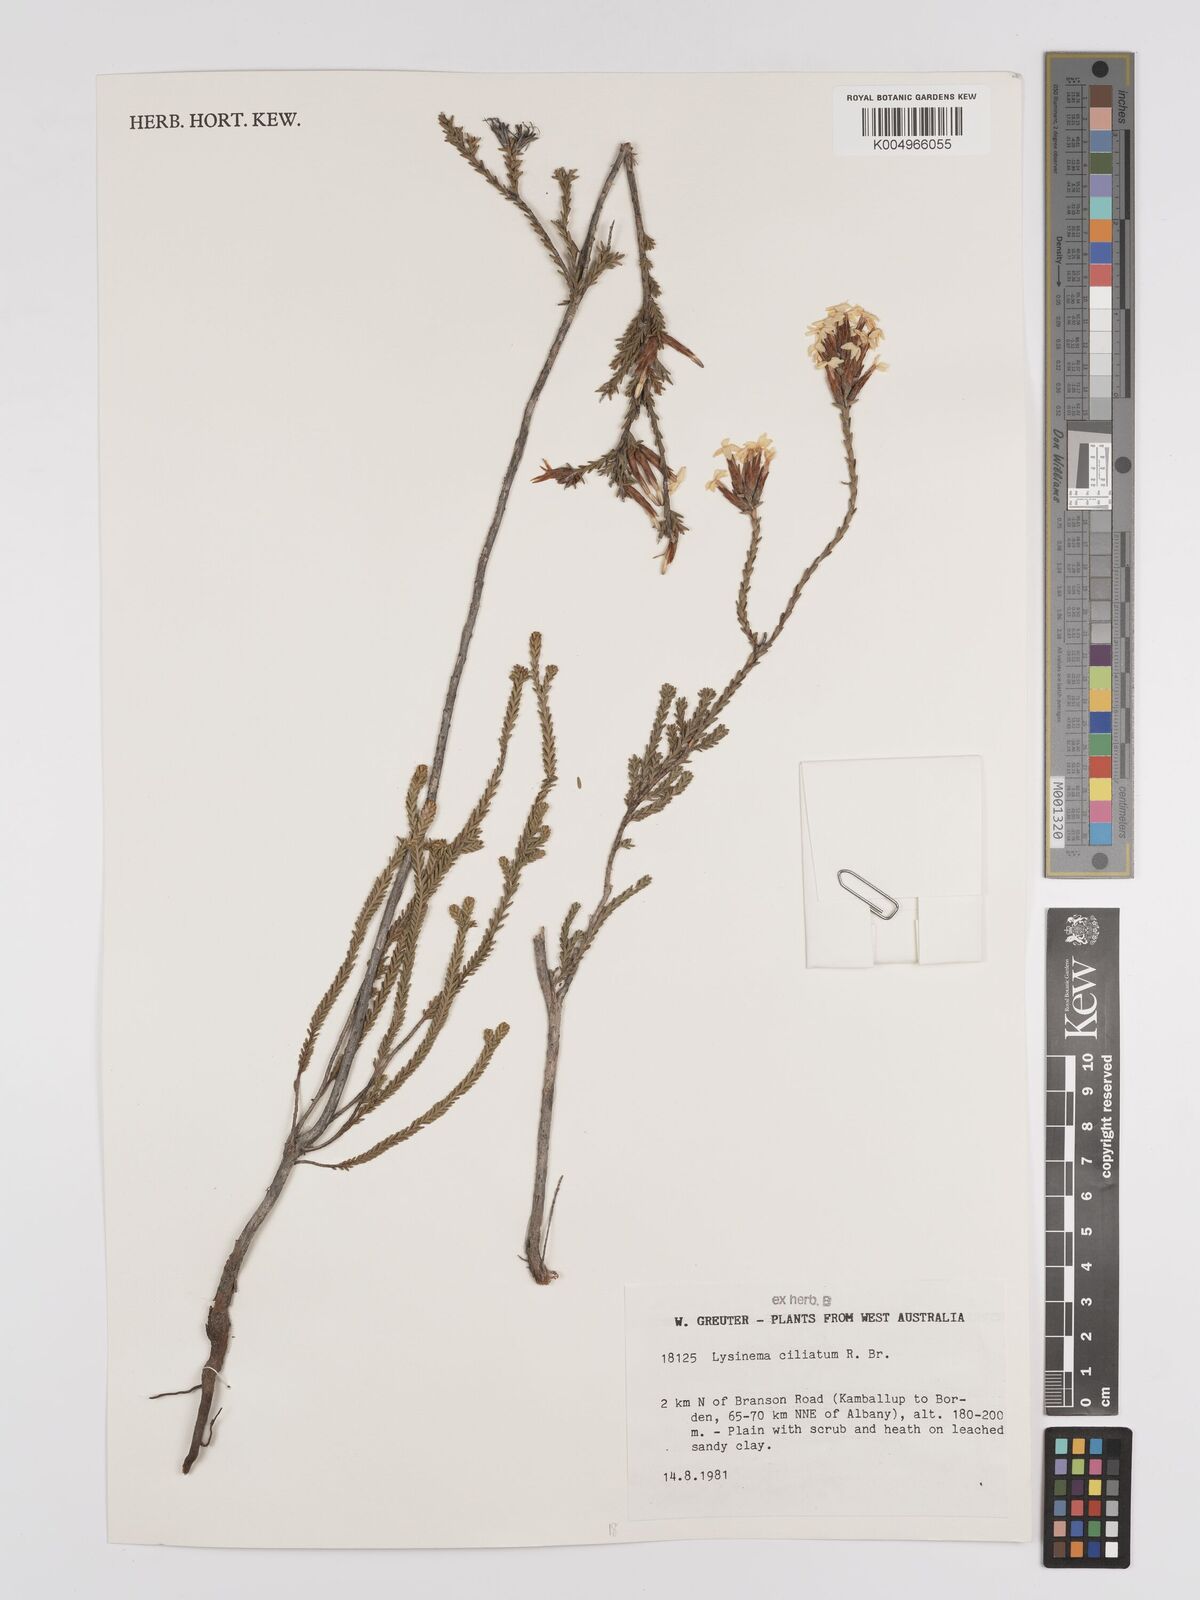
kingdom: Plantae
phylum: Tracheophyta
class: Magnoliopsida
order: Ericales
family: Ericaceae
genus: Lysinema
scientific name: Lysinema ciliatum
